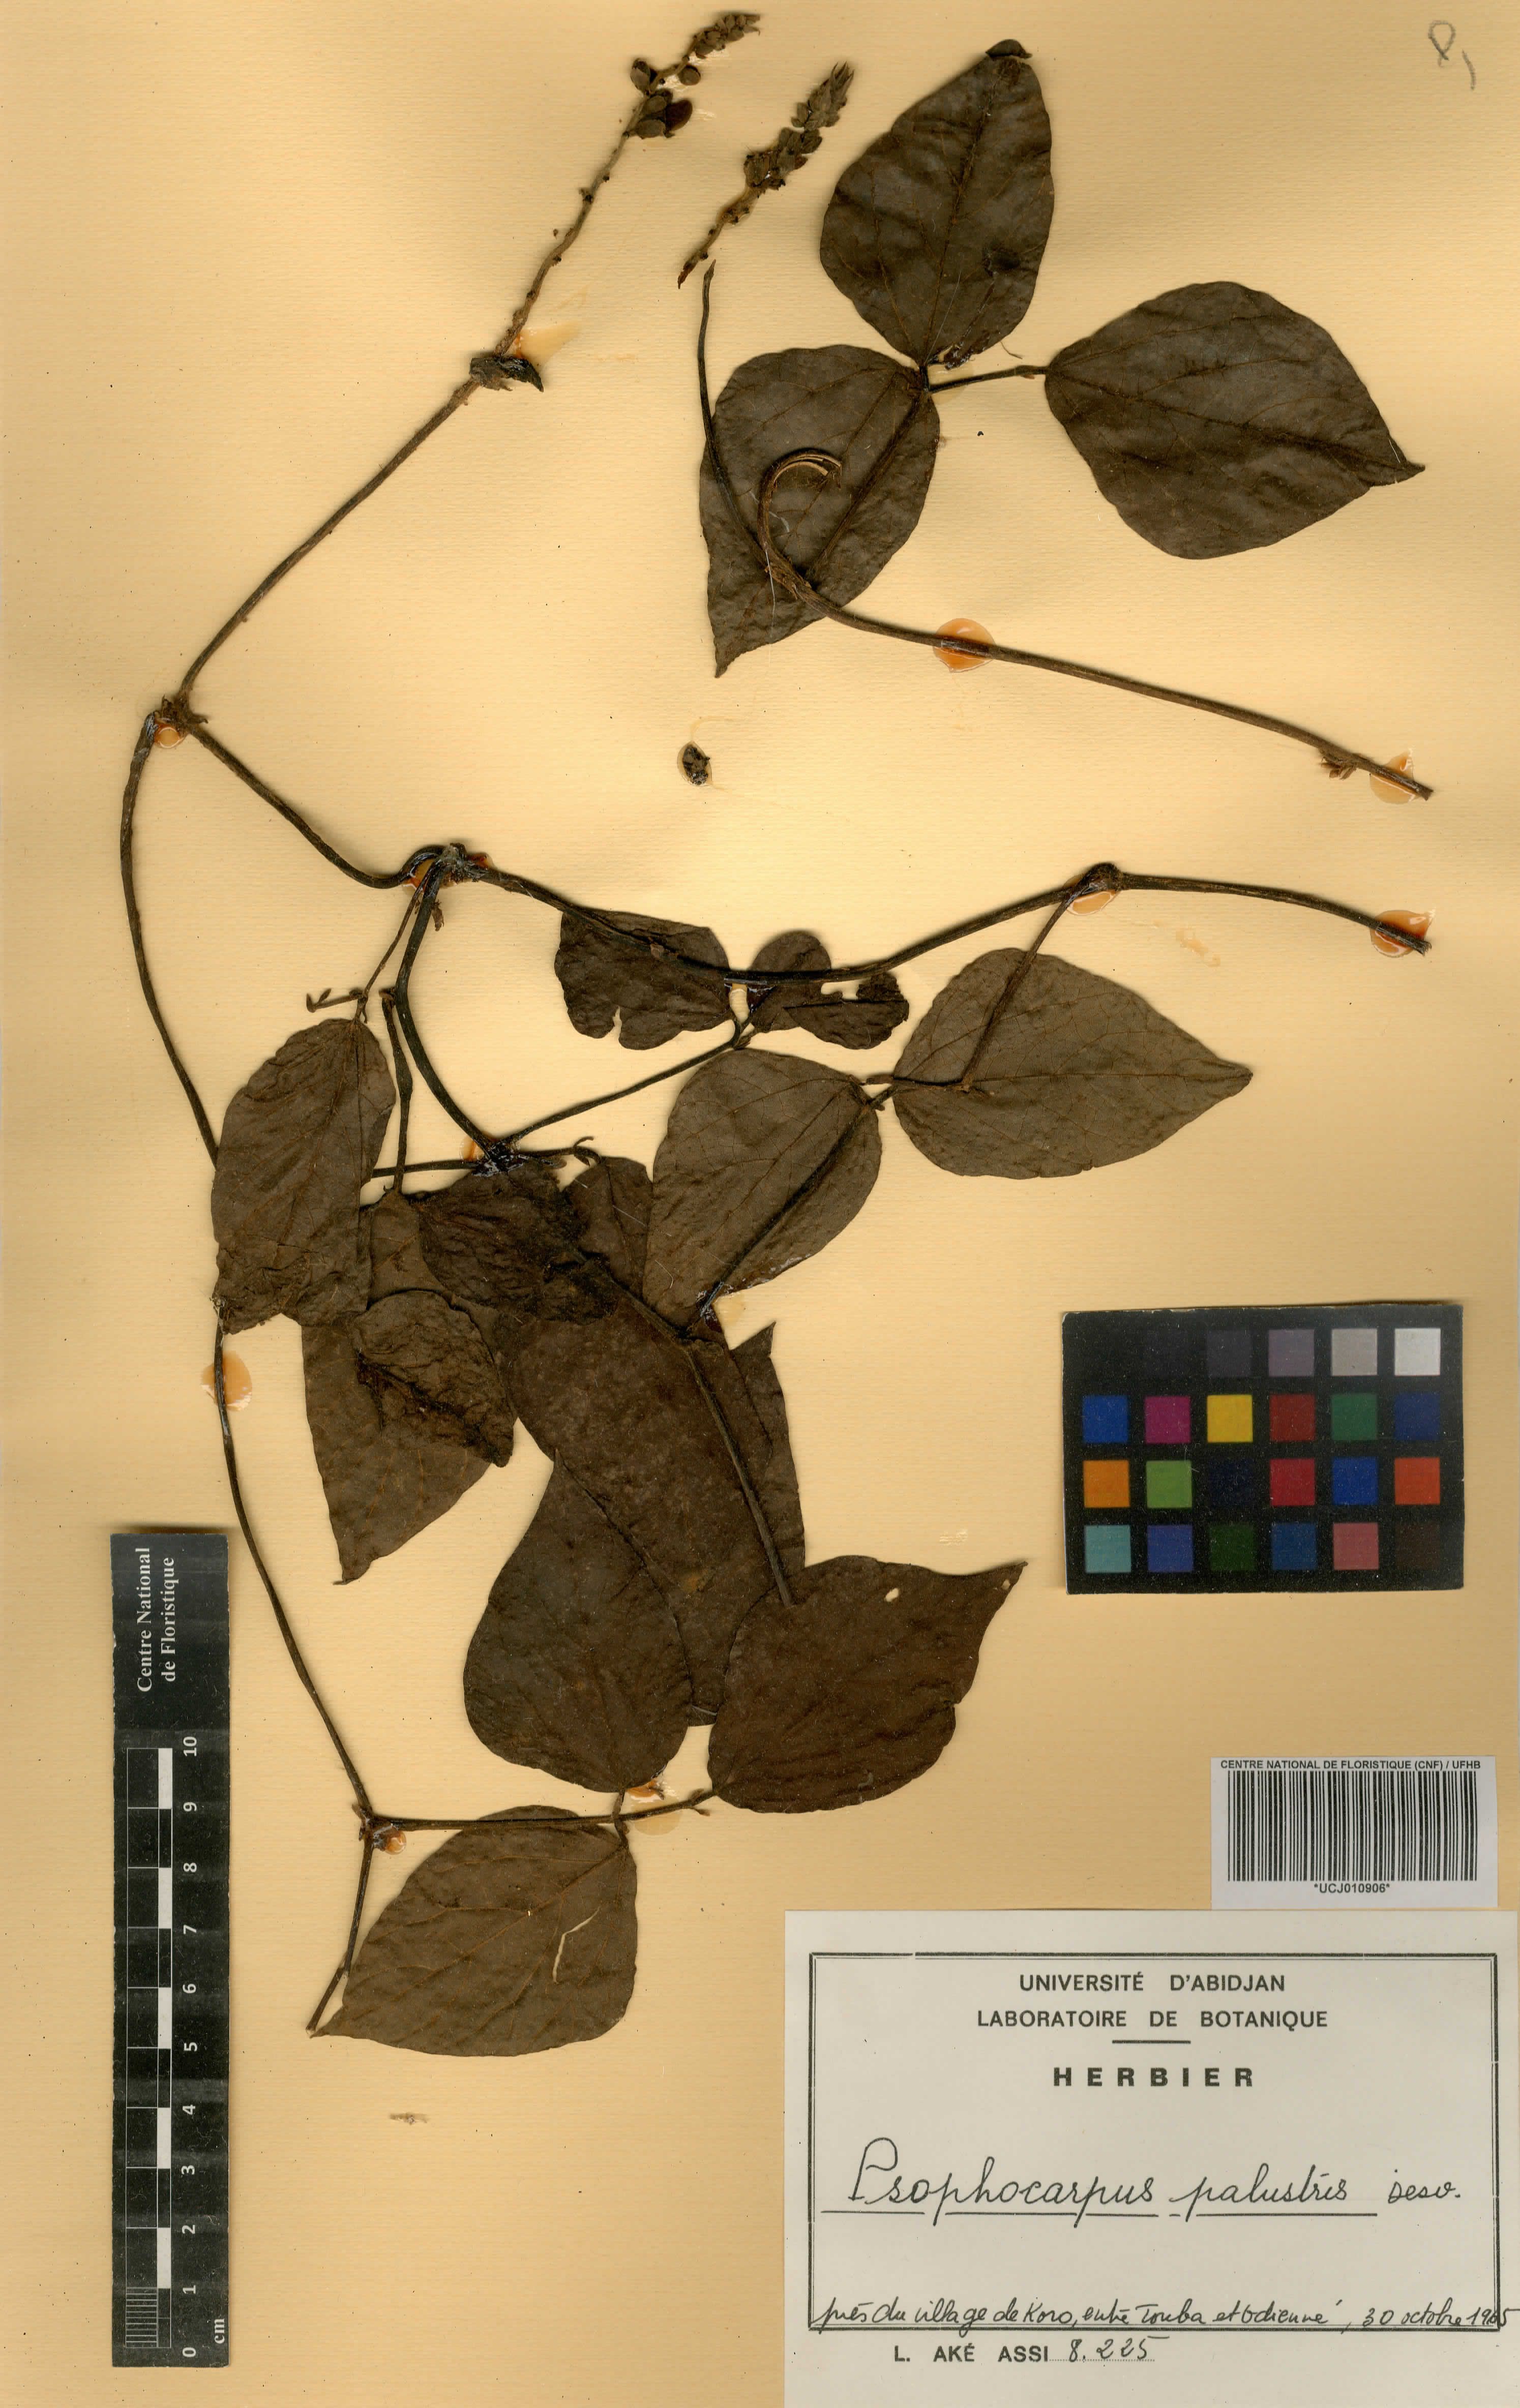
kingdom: Plantae
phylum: Tracheophyta
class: Magnoliopsida
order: Fabales
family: Fabaceae
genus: Psophocarpus
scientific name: Psophocarpus palustris
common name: African winged-bean
